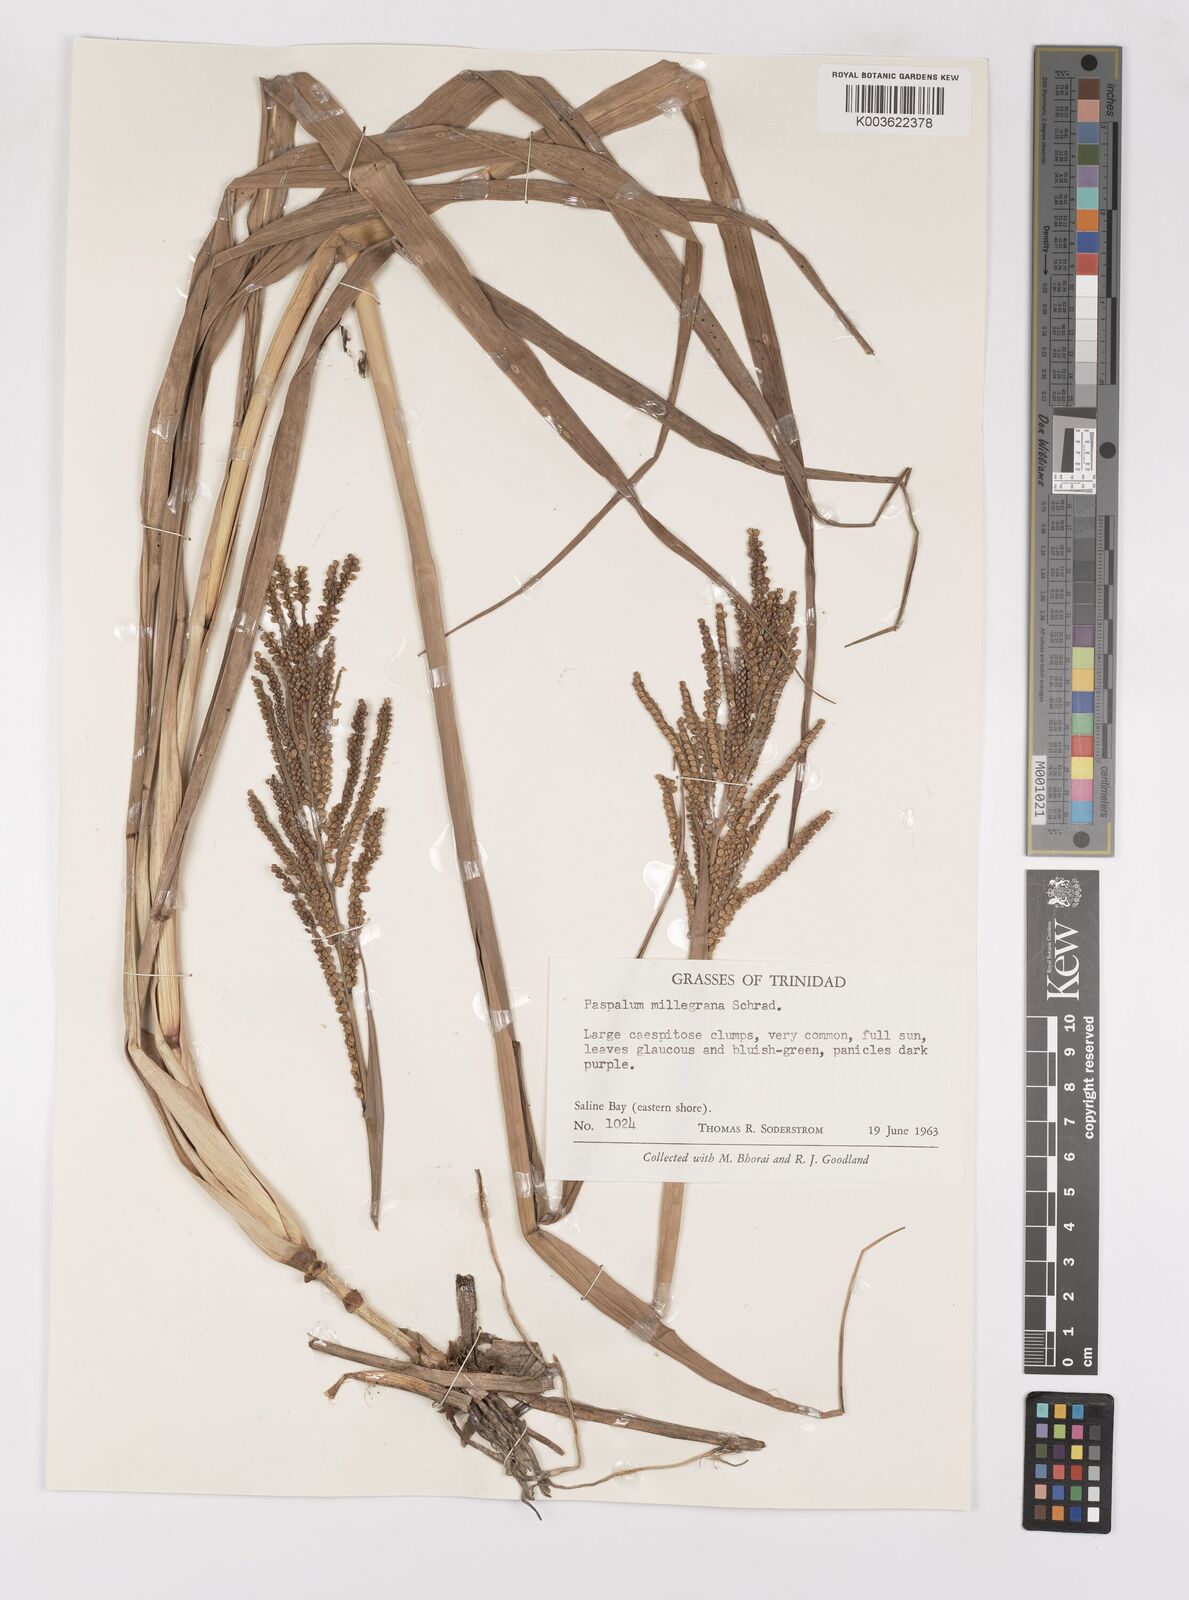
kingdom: Plantae
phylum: Tracheophyta
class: Liliopsida
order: Poales
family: Poaceae
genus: Paspalum
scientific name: Paspalum millegranum
